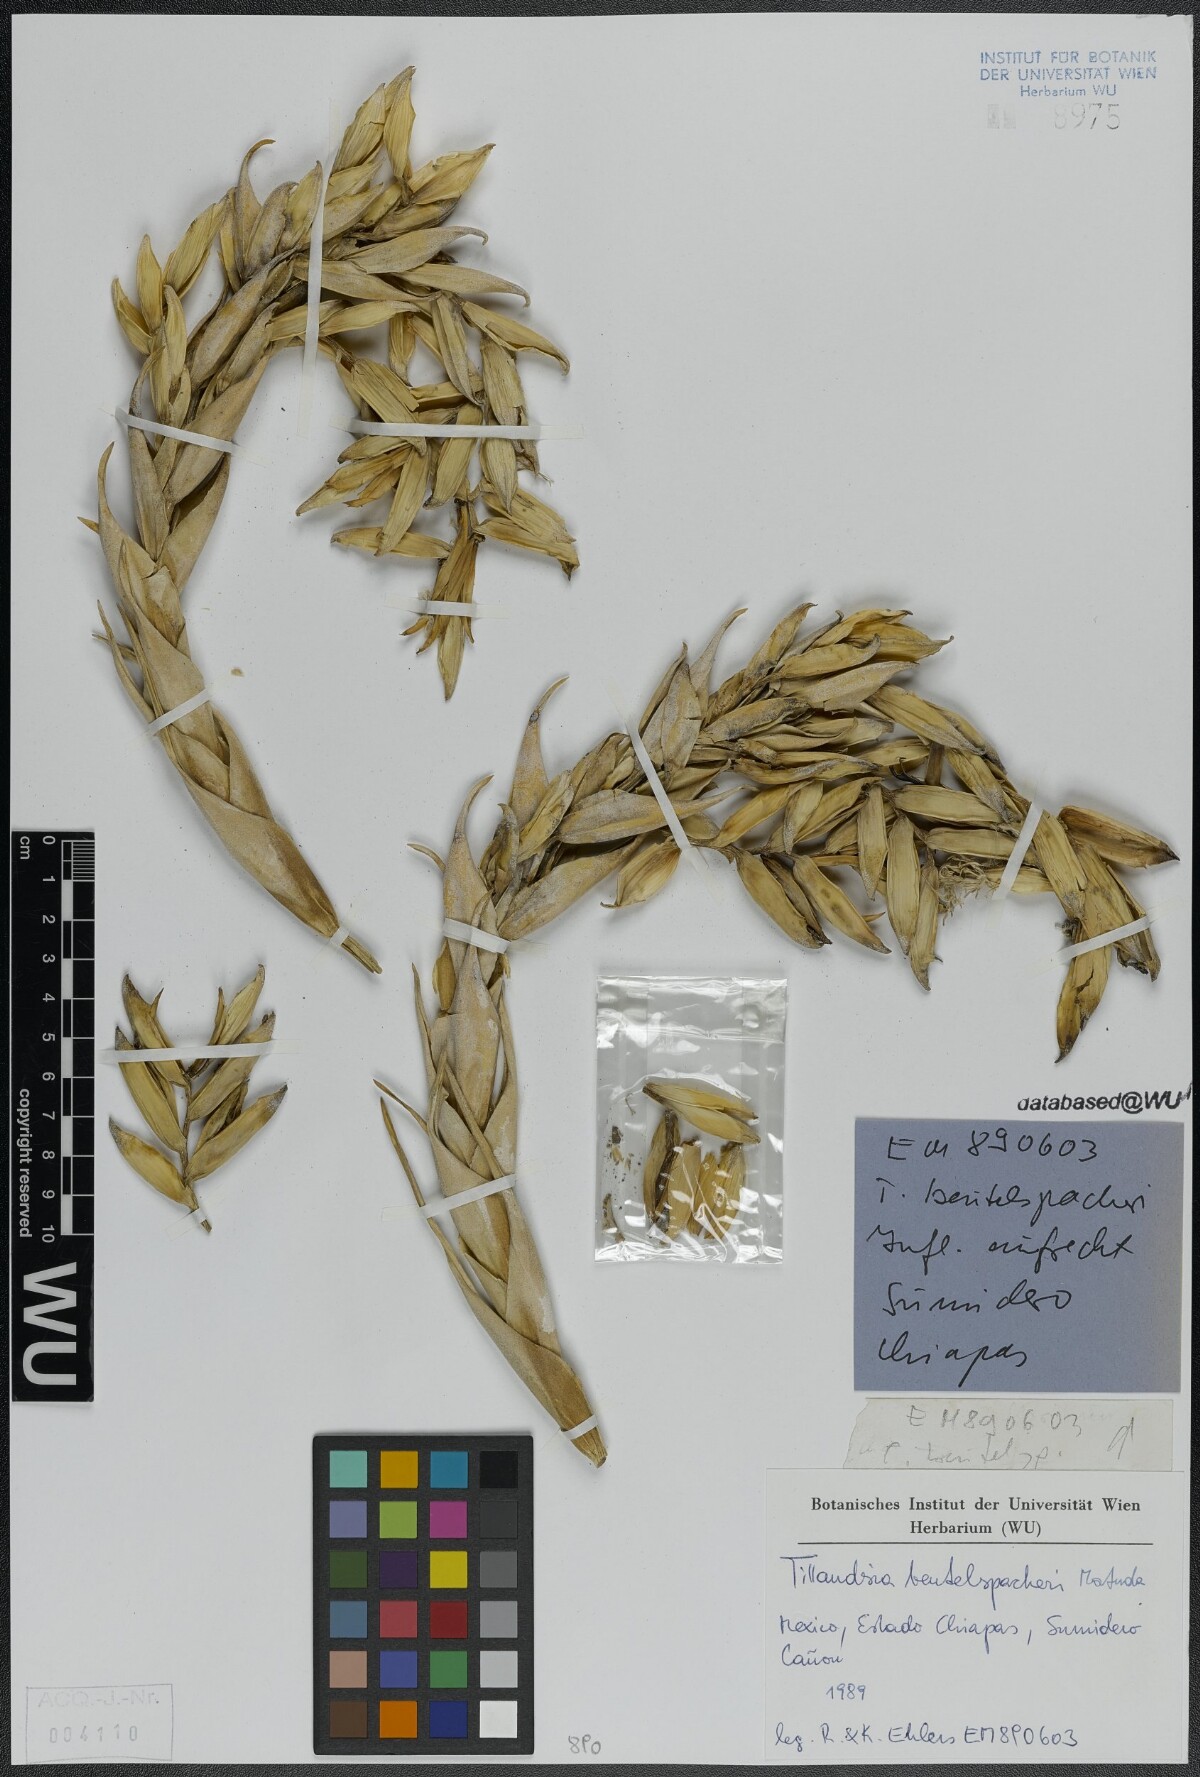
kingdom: Plantae
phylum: Tracheophyta
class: Liliopsida
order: Poales
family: Bromeliaceae
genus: Tillandsia
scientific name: Tillandsia fasciculata
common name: Giant airplant
